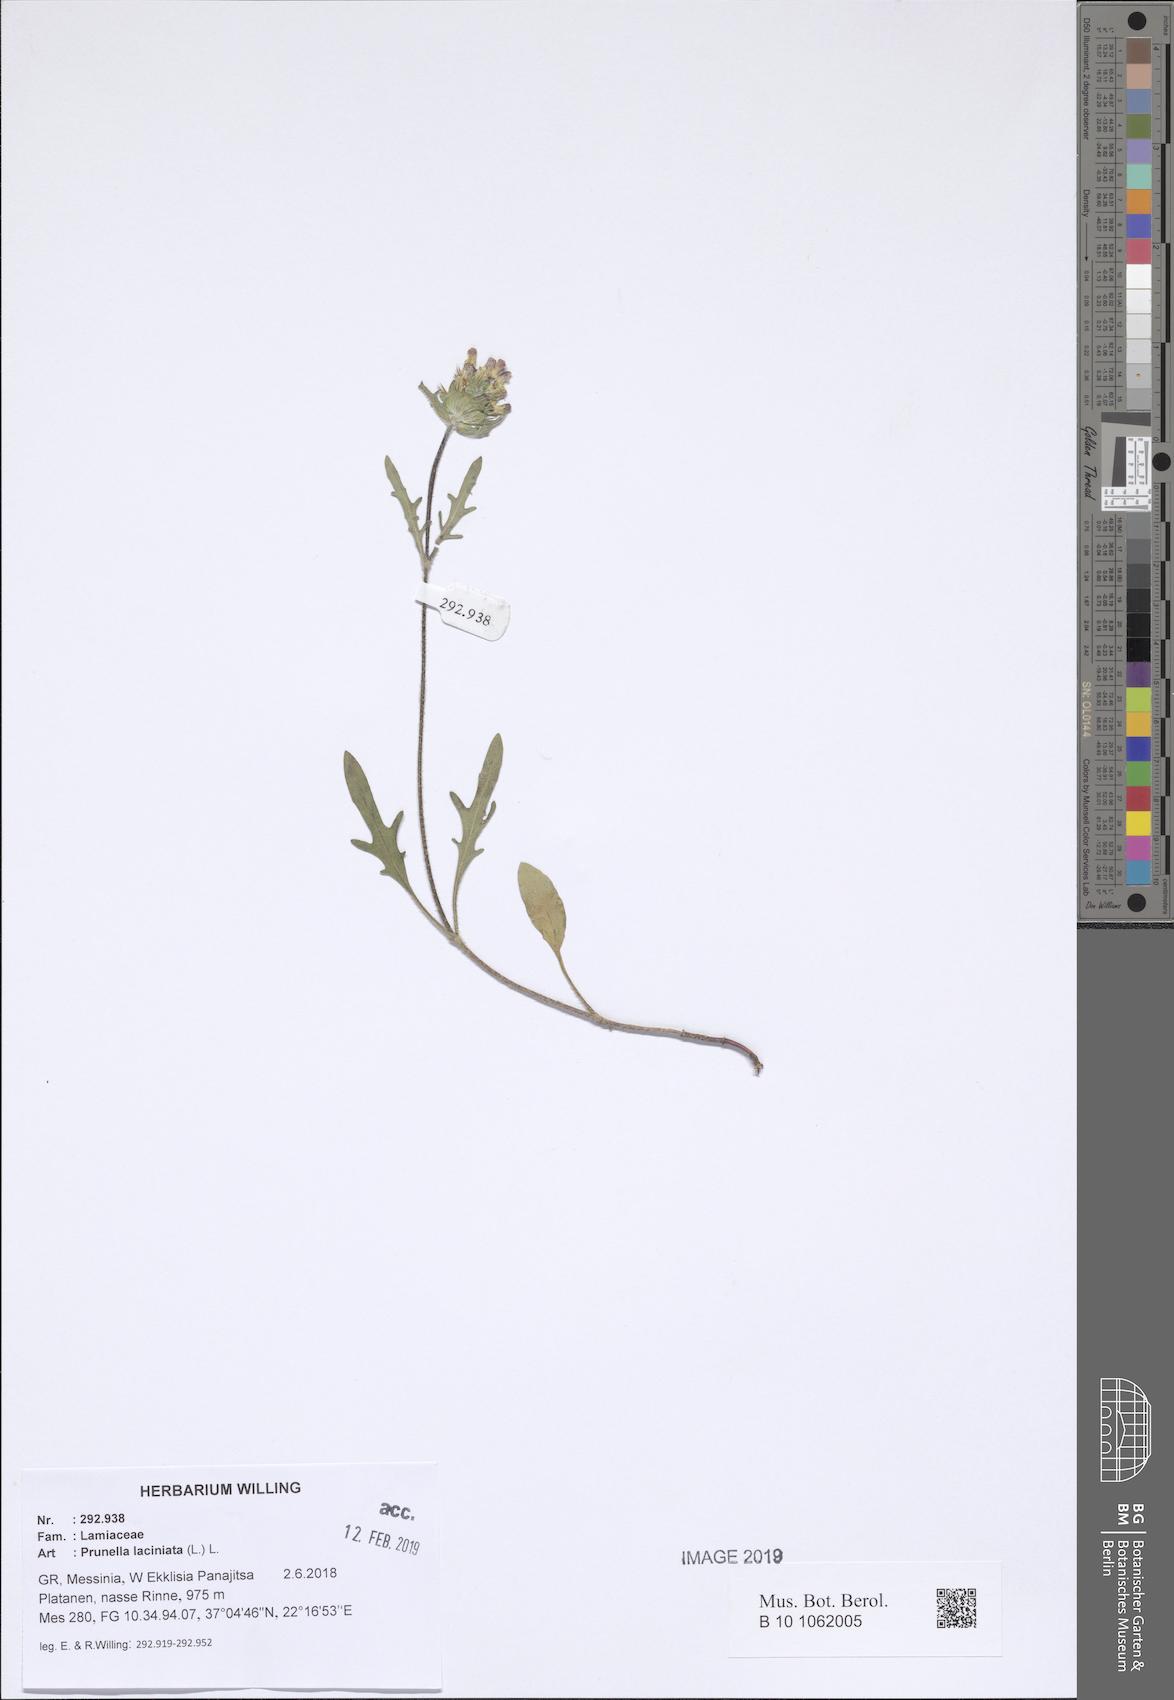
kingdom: Plantae
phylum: Tracheophyta
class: Magnoliopsida
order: Lamiales
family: Lamiaceae
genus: Prunella
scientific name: Prunella laciniata
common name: Cut-leaved selfheal
